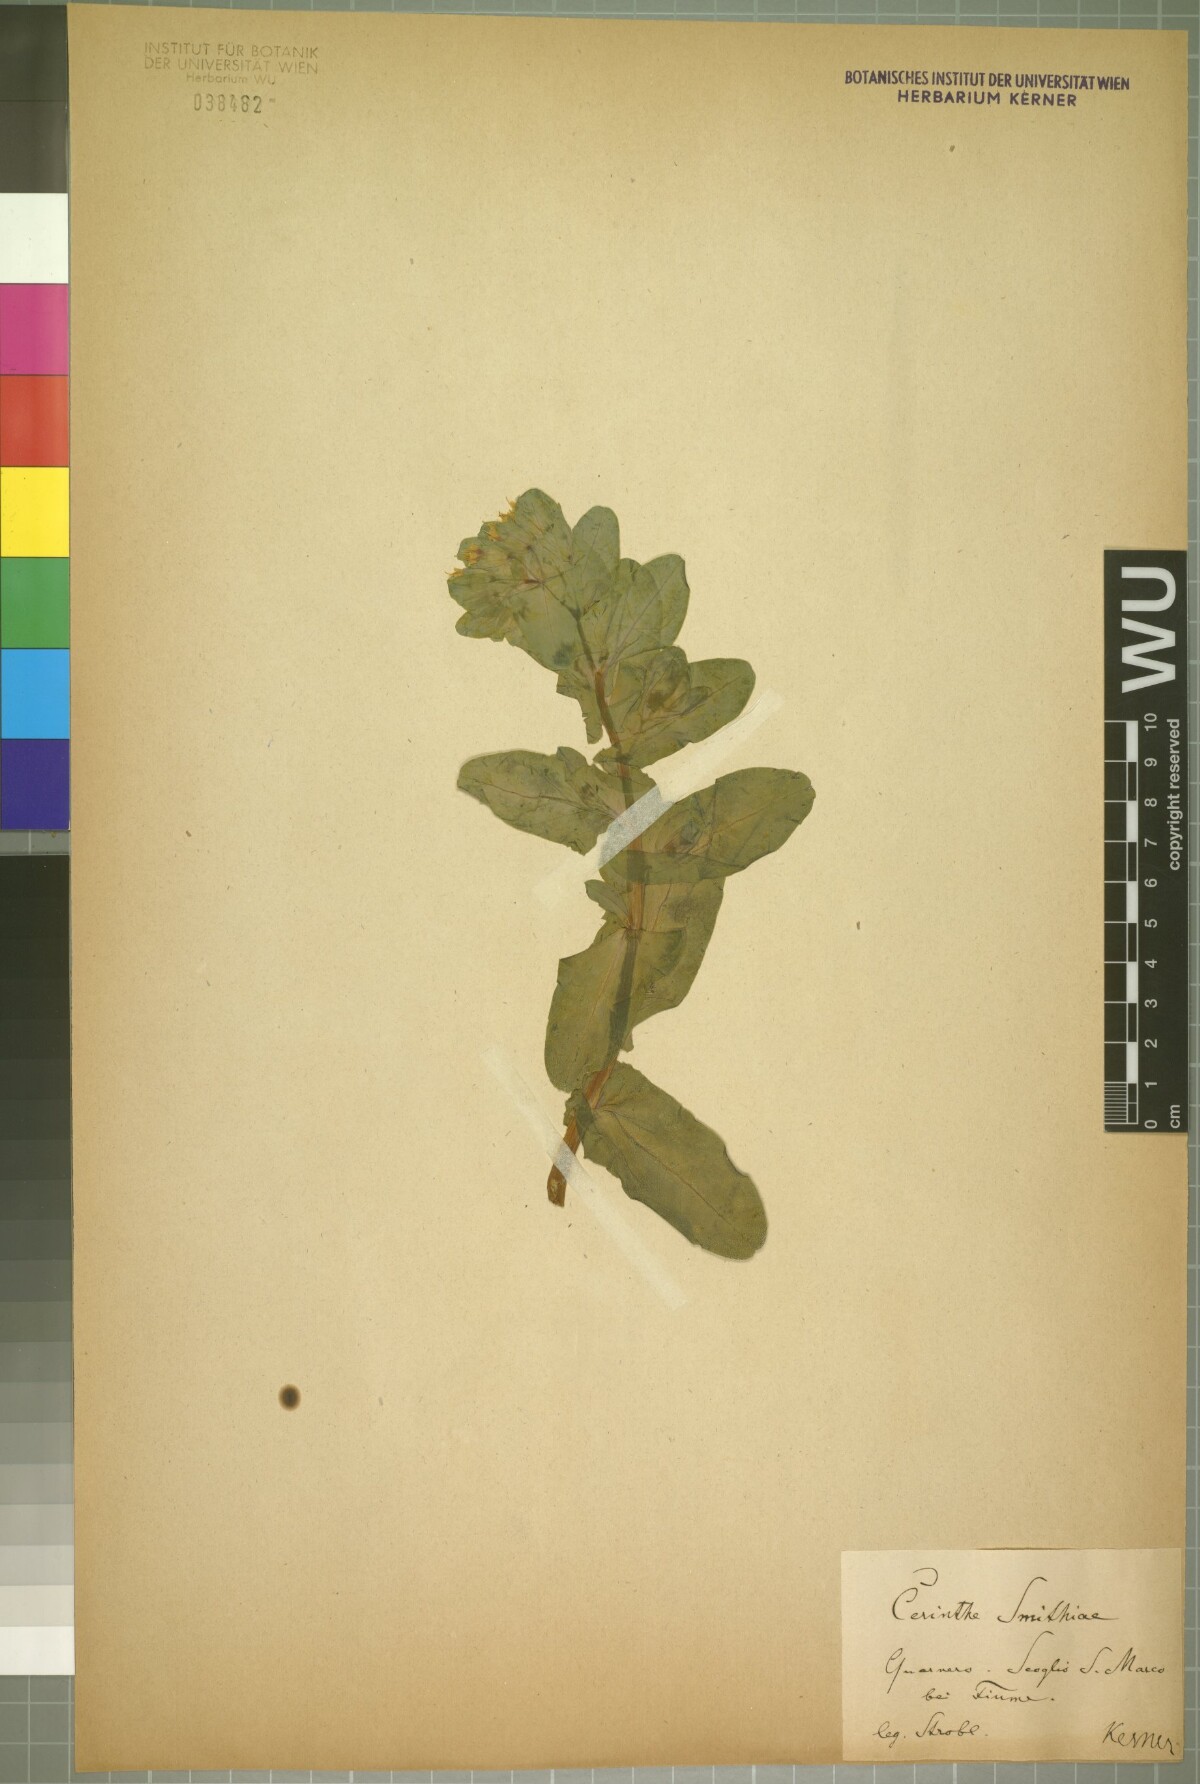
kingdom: Plantae
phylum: Tracheophyta
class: Magnoliopsida
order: Boraginales
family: Boraginaceae
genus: Cerinthe
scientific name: Cerinthe glabra
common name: Smooth honeywort
